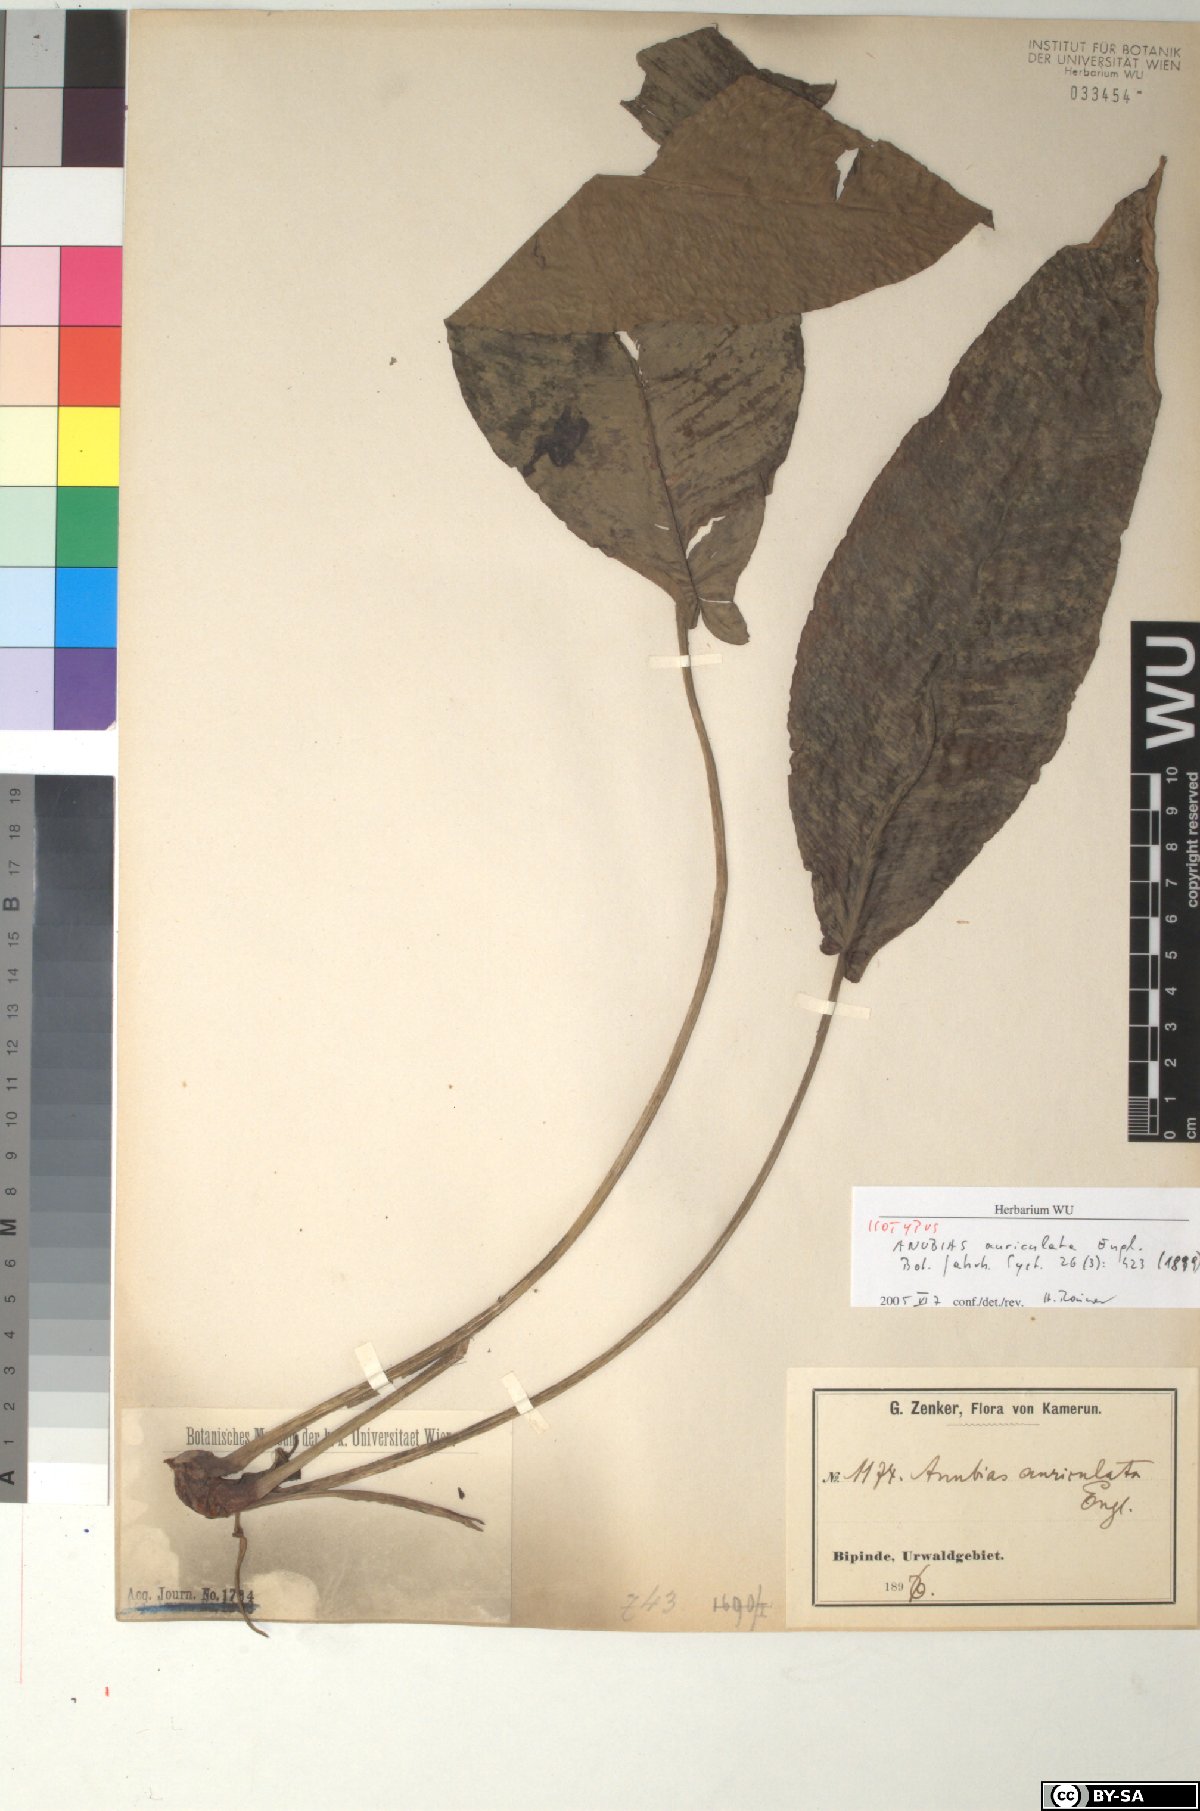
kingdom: Plantae
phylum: Tracheophyta
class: Liliopsida
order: Alismatales
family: Araceae
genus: Anubias
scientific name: Anubias hastifolia
